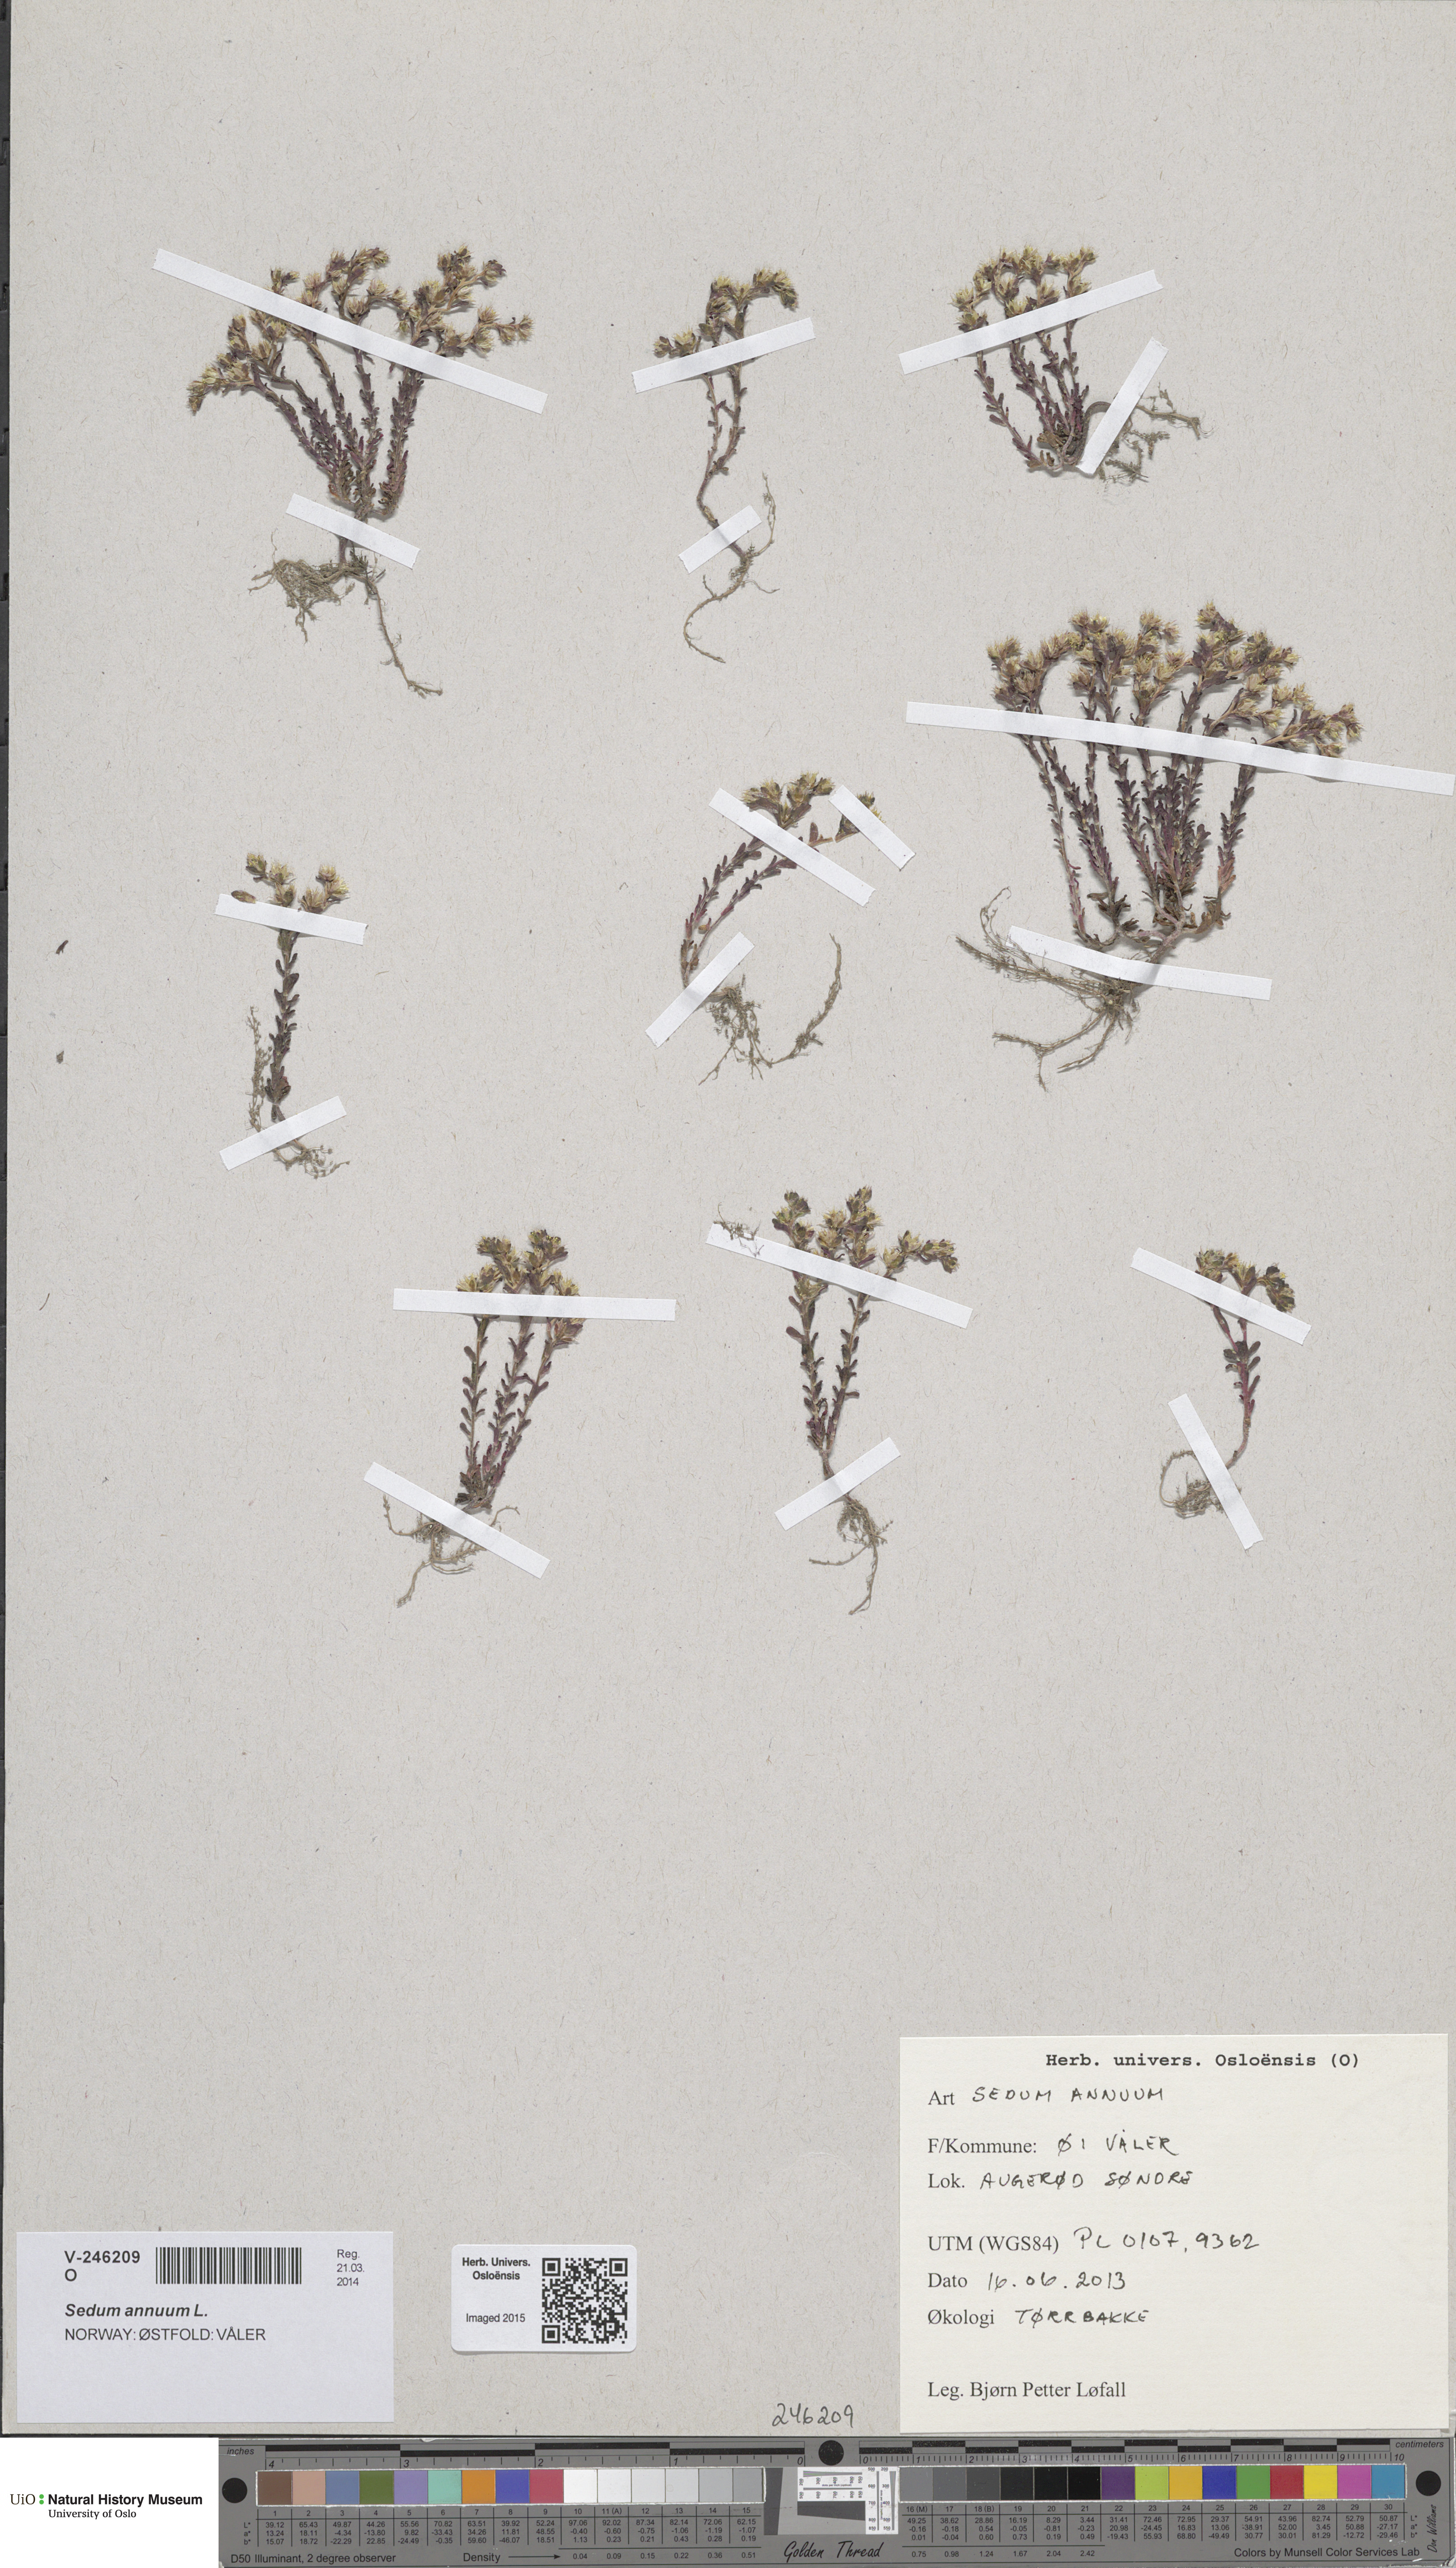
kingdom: Plantae
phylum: Tracheophyta
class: Magnoliopsida
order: Saxifragales
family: Crassulaceae
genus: Sedum
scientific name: Sedum annuum
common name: Annual stonecrop
